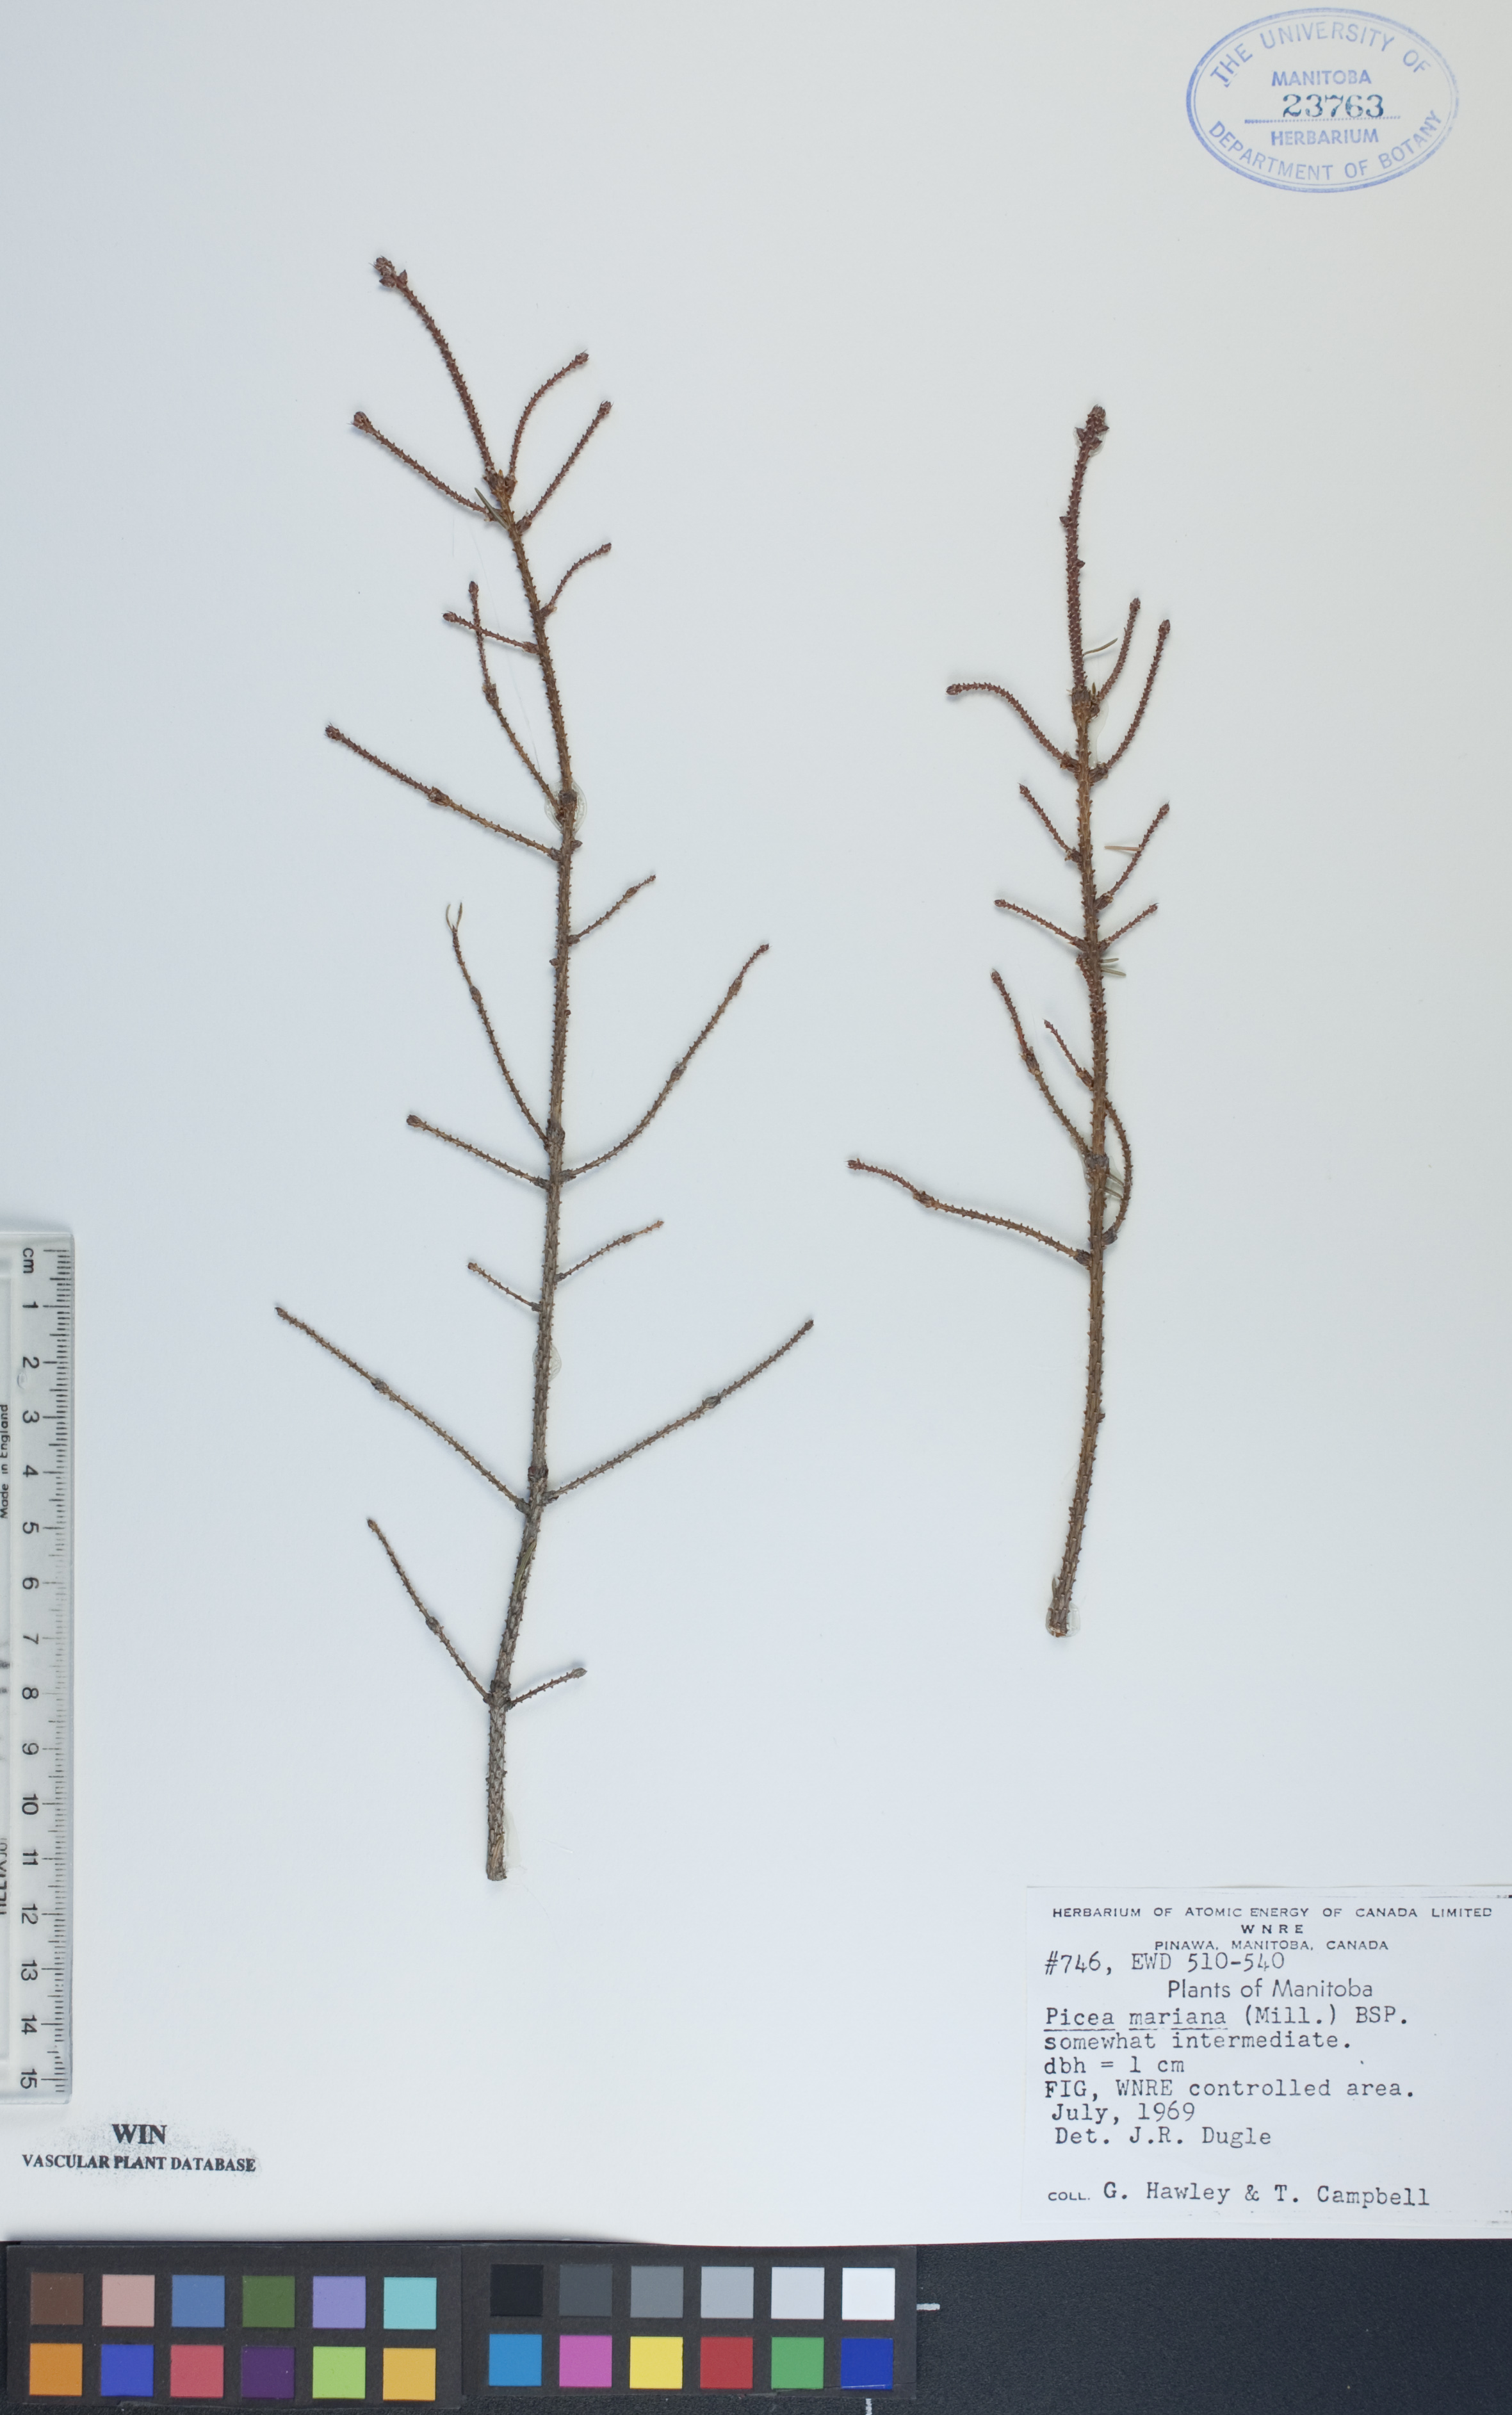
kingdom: Plantae
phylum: Tracheophyta
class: Pinopsida
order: Pinales
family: Pinaceae
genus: Picea
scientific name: Picea mariana
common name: Black spruce
